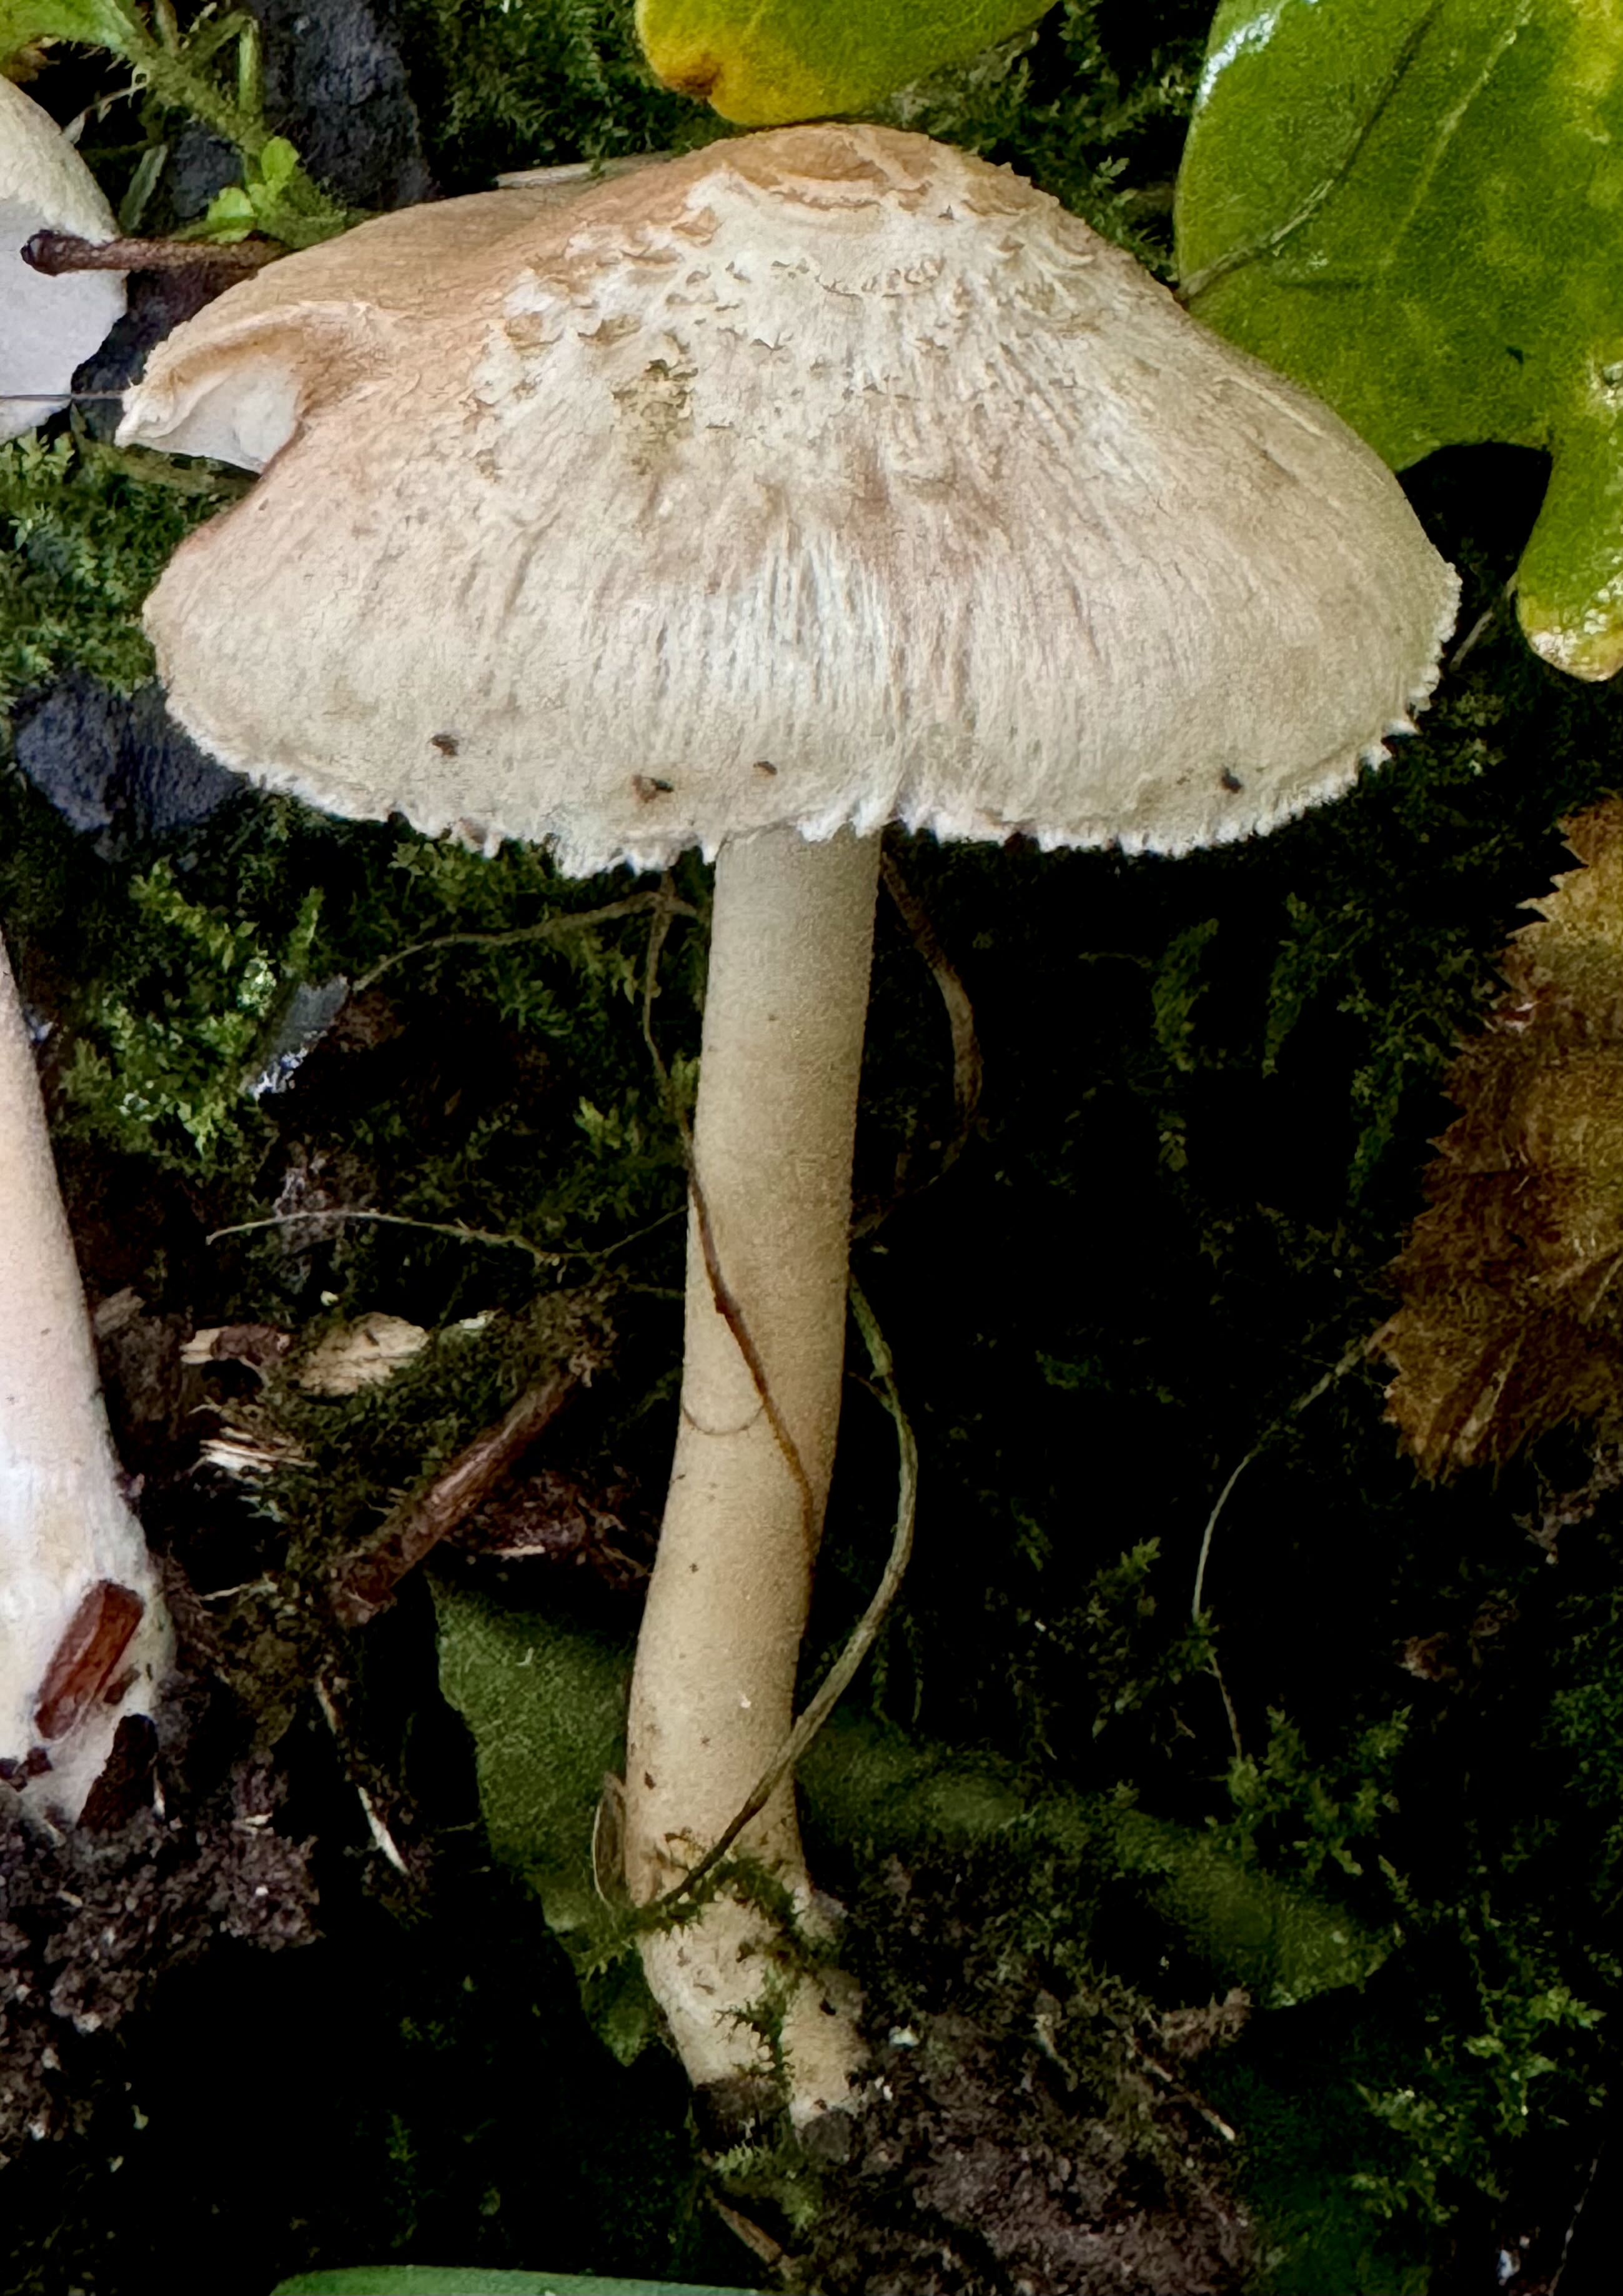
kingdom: Fungi
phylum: Basidiomycota
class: Agaricomycetes
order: Agaricales
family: Inocybaceae
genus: Inocybe
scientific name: Inocybe sindonia
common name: bleg trævlhat
